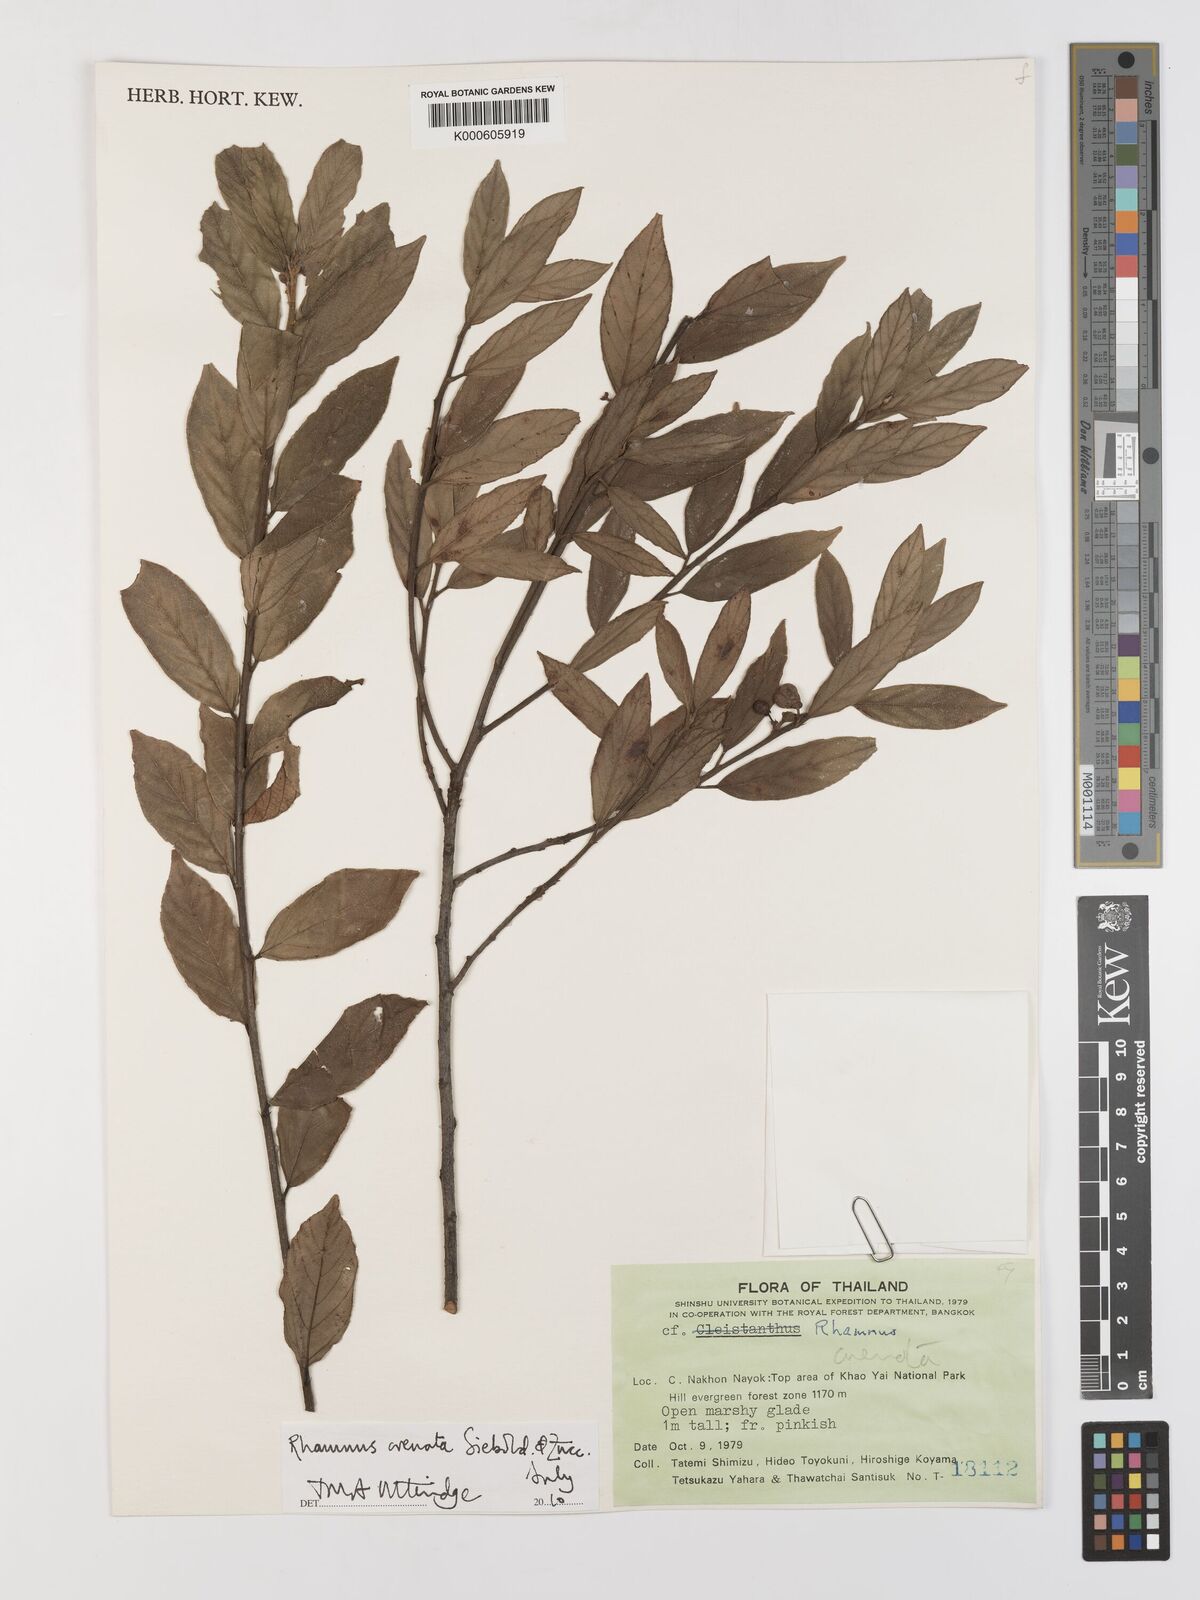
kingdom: Plantae
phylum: Tracheophyta
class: Magnoliopsida
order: Rosales
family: Rhamnaceae
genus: Frangula
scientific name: Frangula crenata
